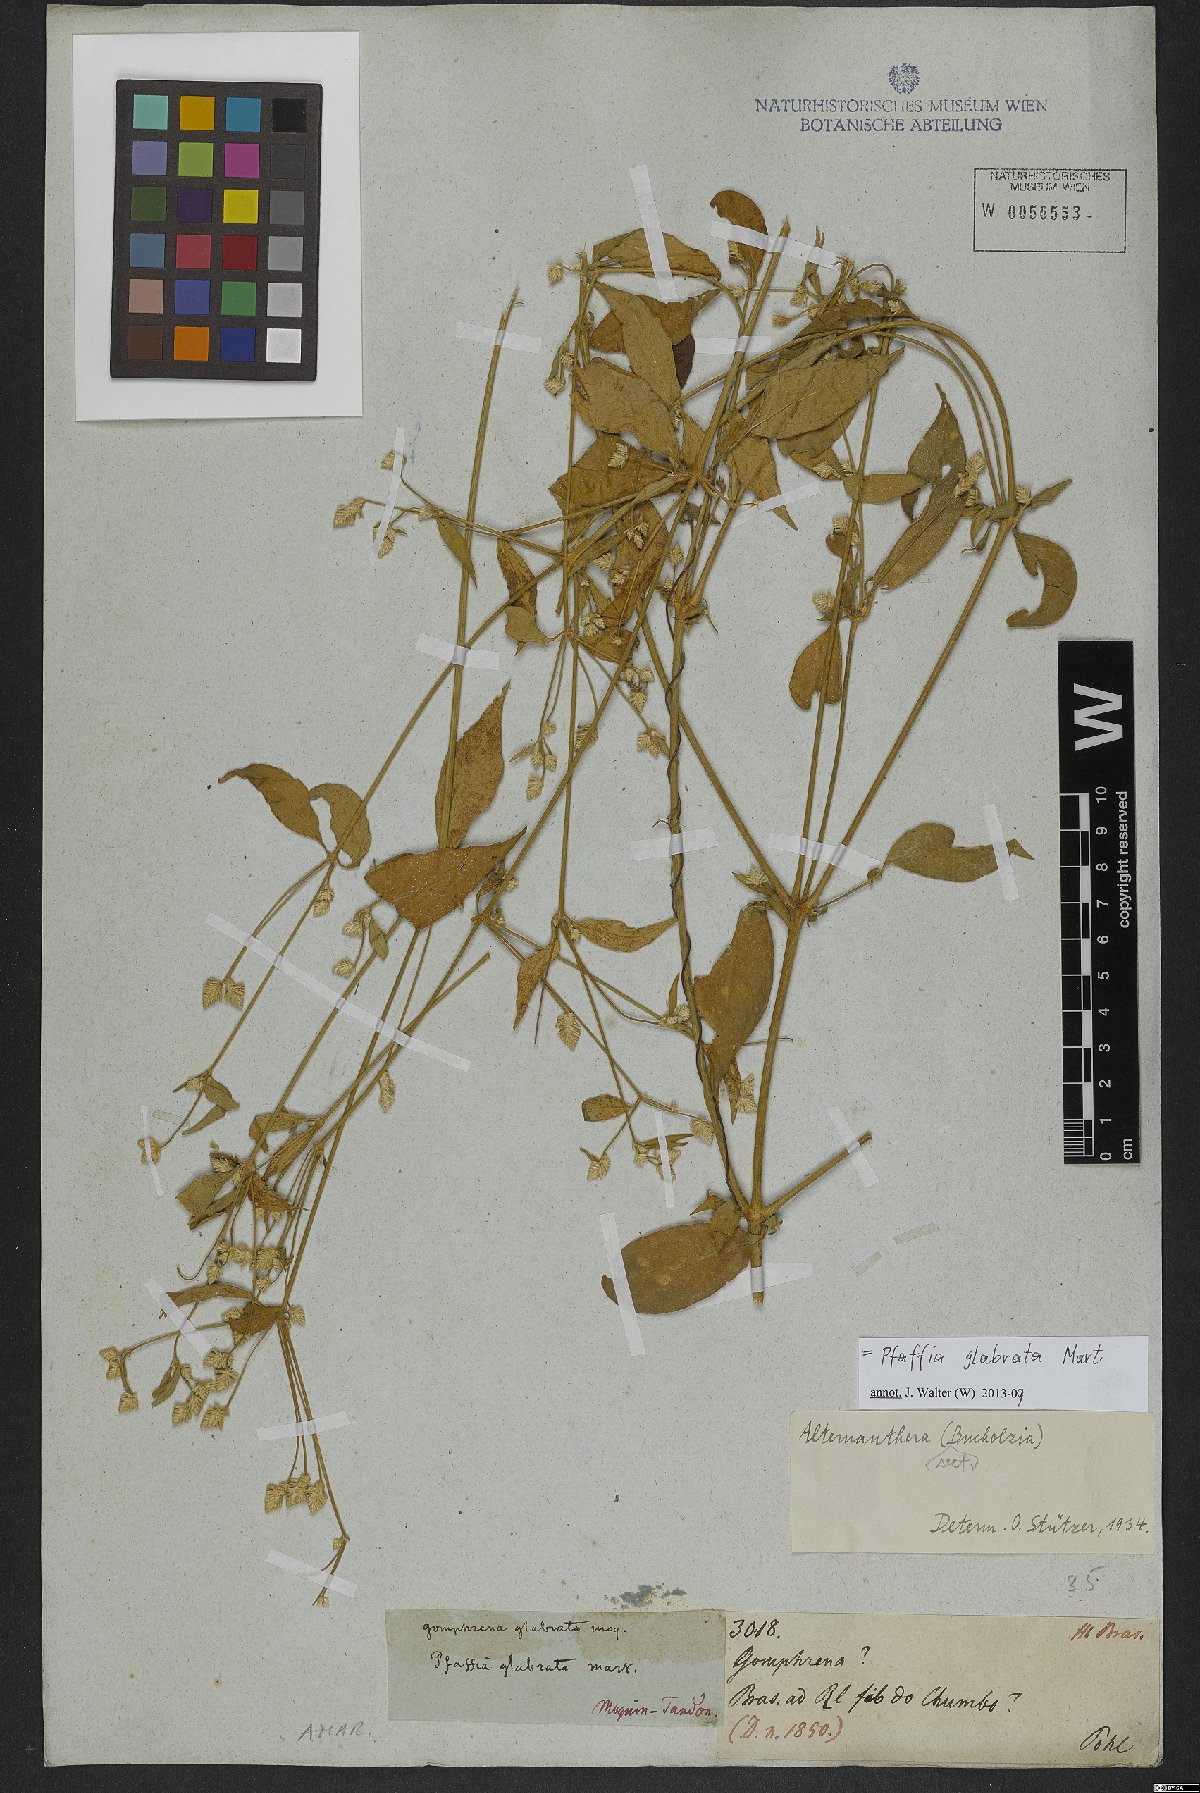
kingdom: Plantae
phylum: Tracheophyta
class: Magnoliopsida
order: Caryophyllales
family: Amaranthaceae
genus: Pfaffia
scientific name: Pfaffia glabrata
